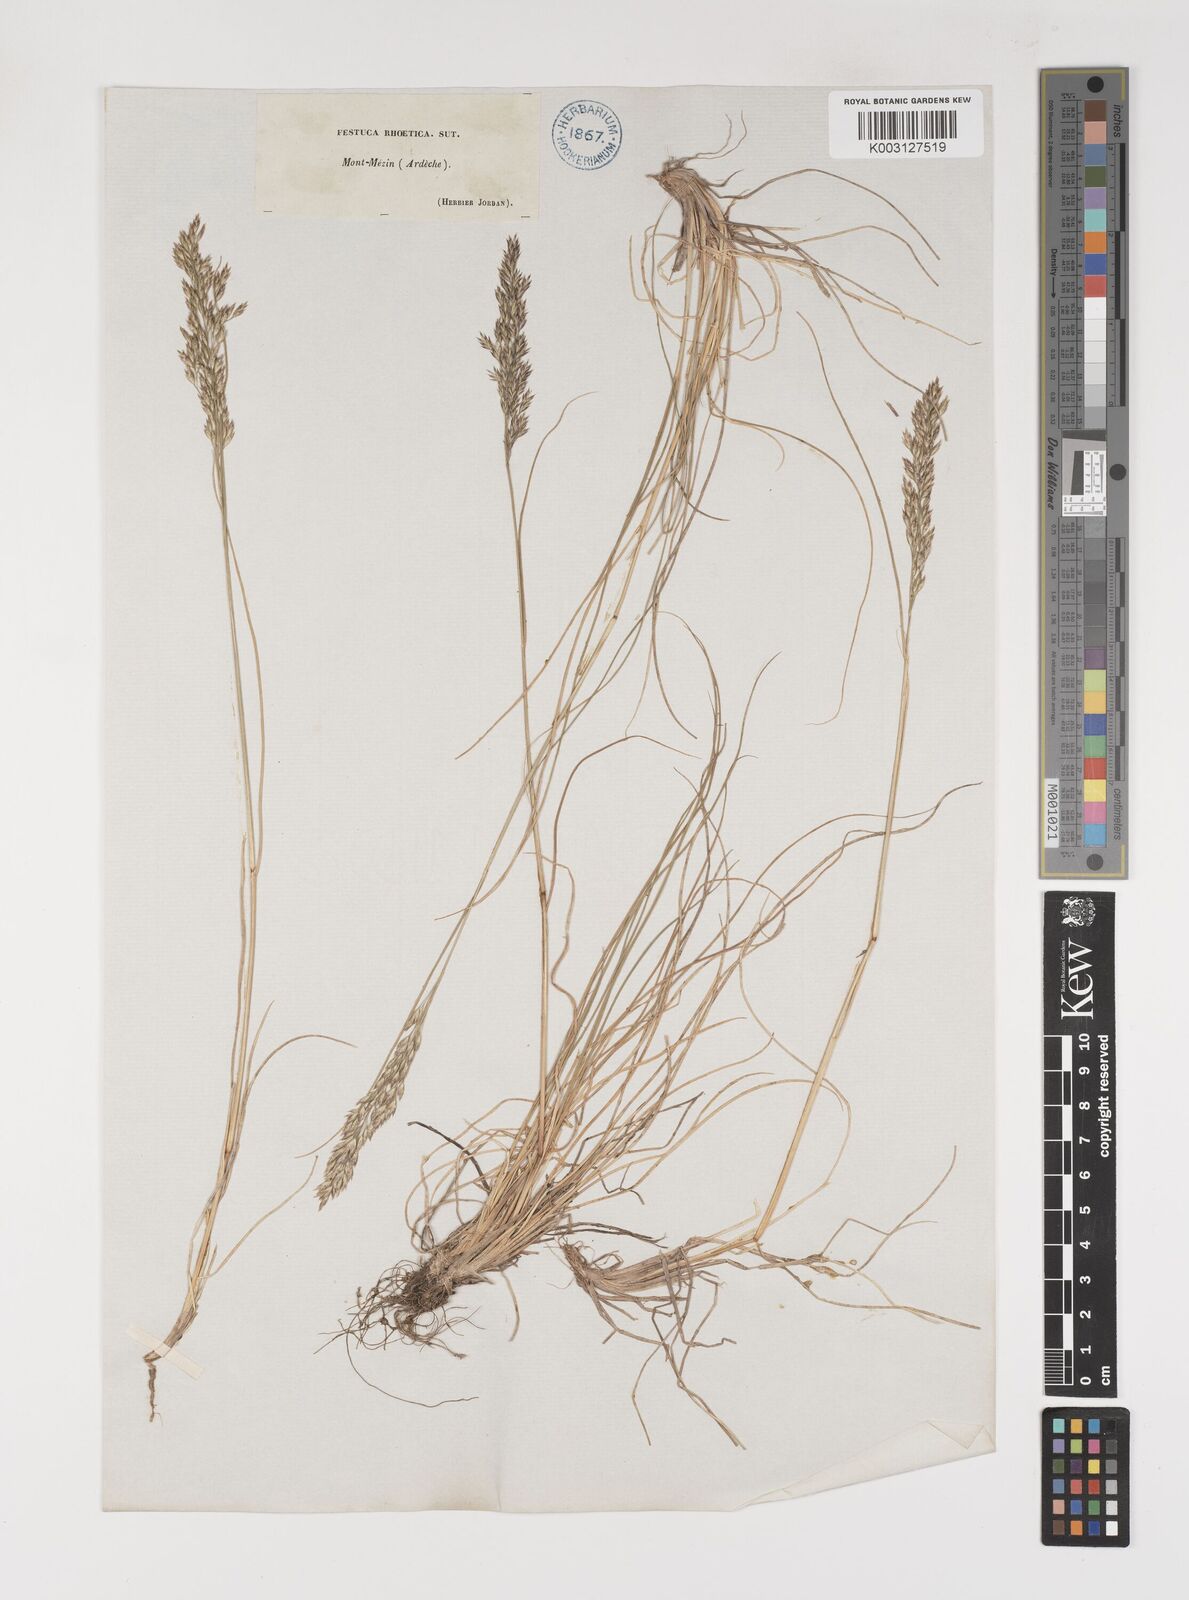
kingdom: Plantae
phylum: Tracheophyta
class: Liliopsida
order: Poales
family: Poaceae
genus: Bellardiochloa
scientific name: Bellardiochloa variegata
